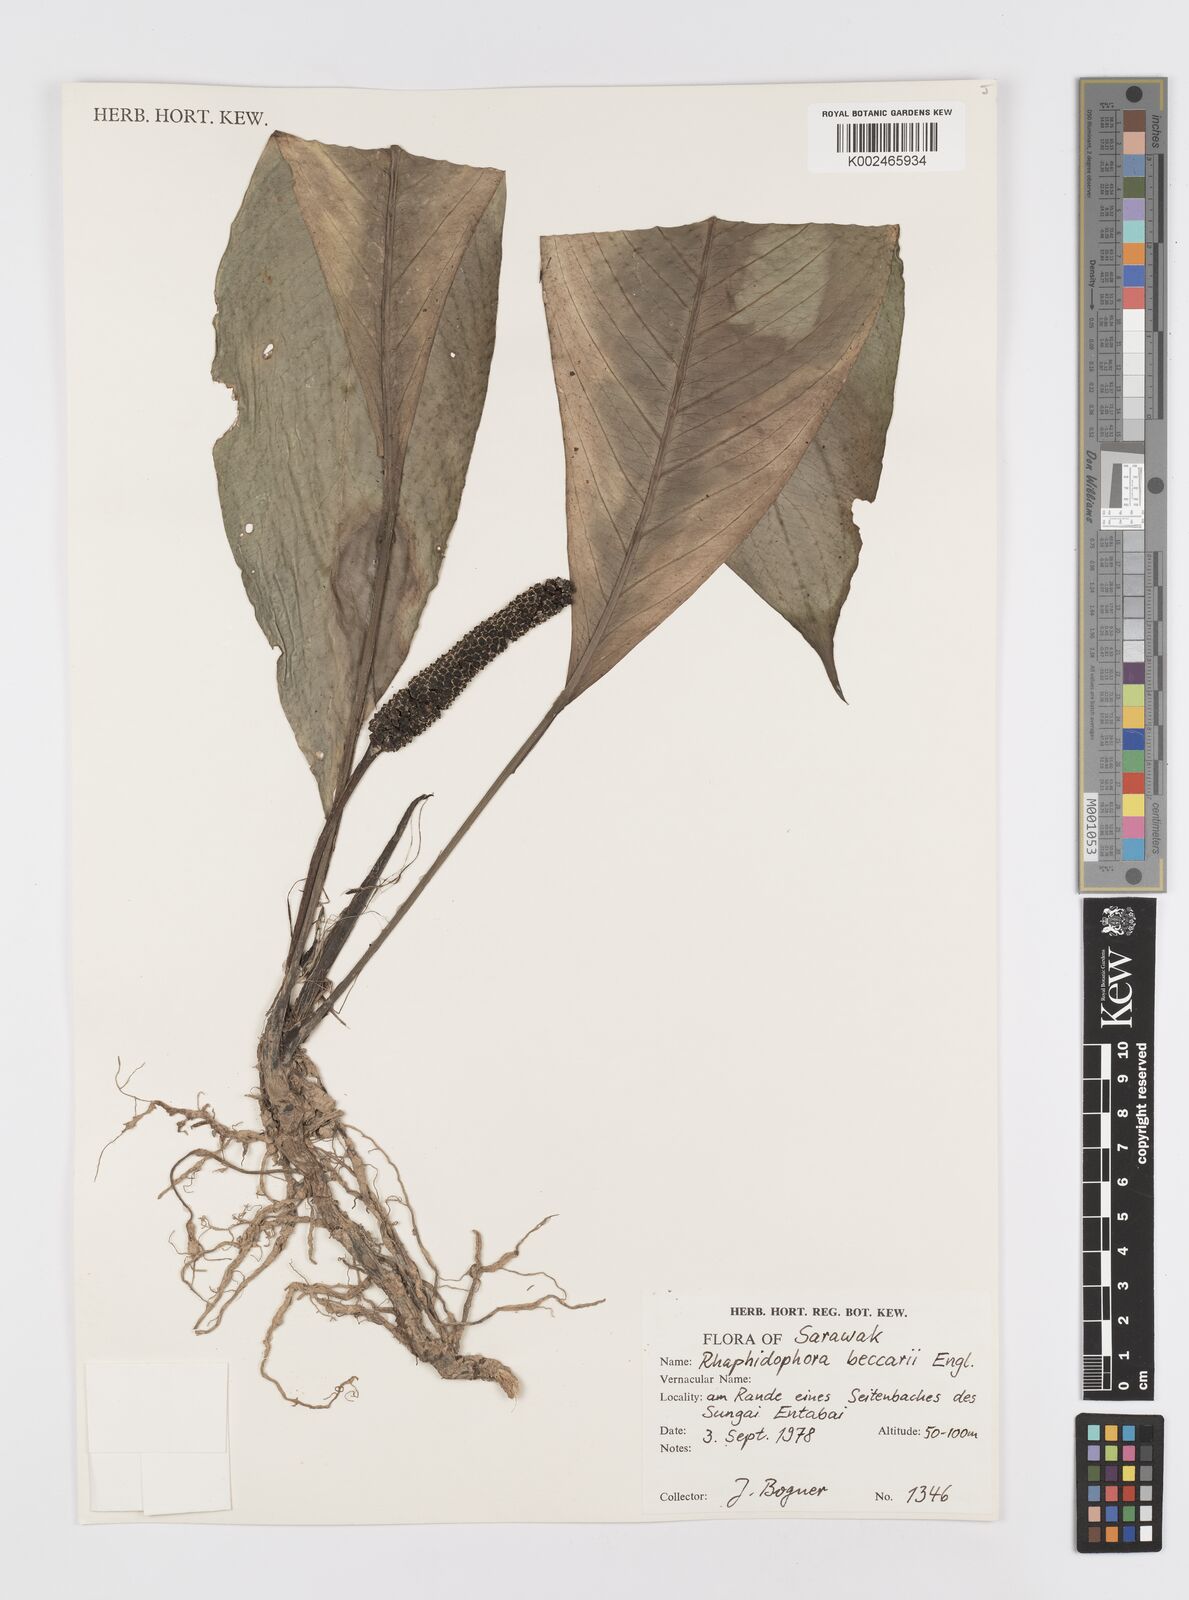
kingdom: Plantae
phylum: Tracheophyta
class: Liliopsida
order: Alismatales
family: Araceae
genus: Rhaphidophora
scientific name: Rhaphidophora beccarii
